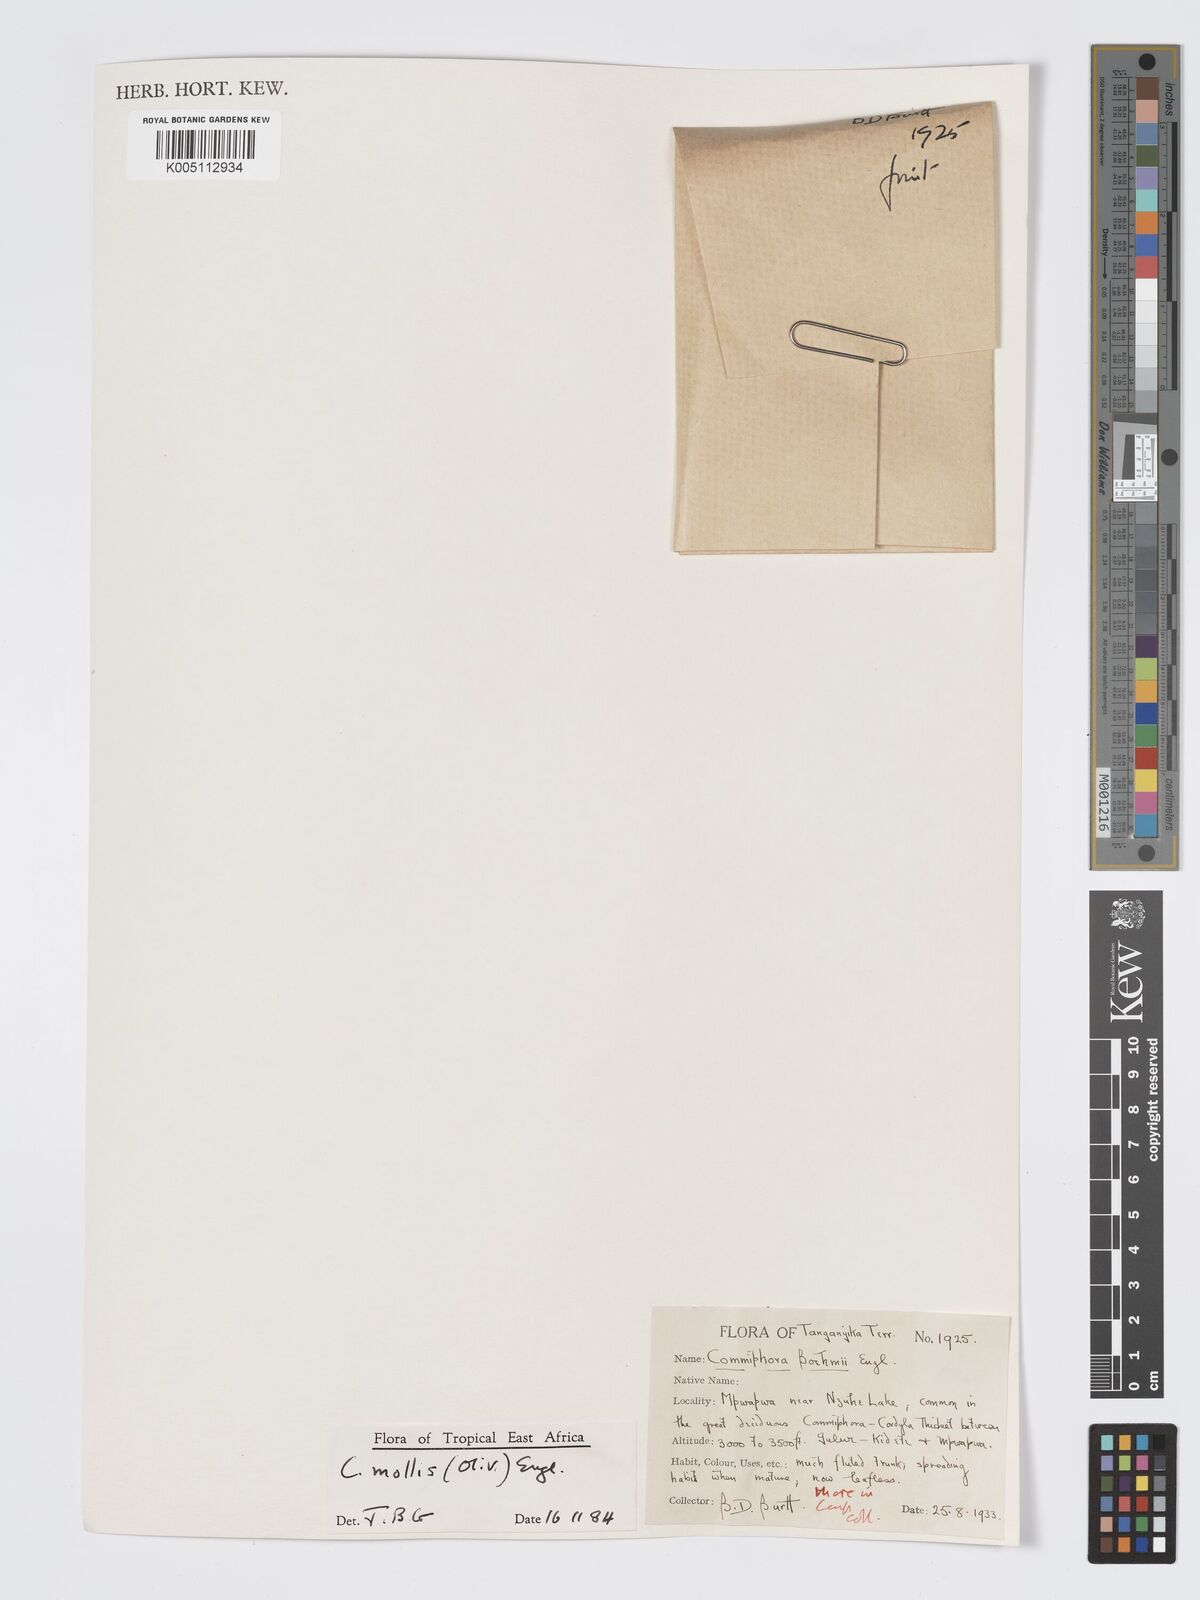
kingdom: Plantae
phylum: Tracheophyta
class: Magnoliopsida
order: Sapindales
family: Burseraceae
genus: Commiphora
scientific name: Commiphora
